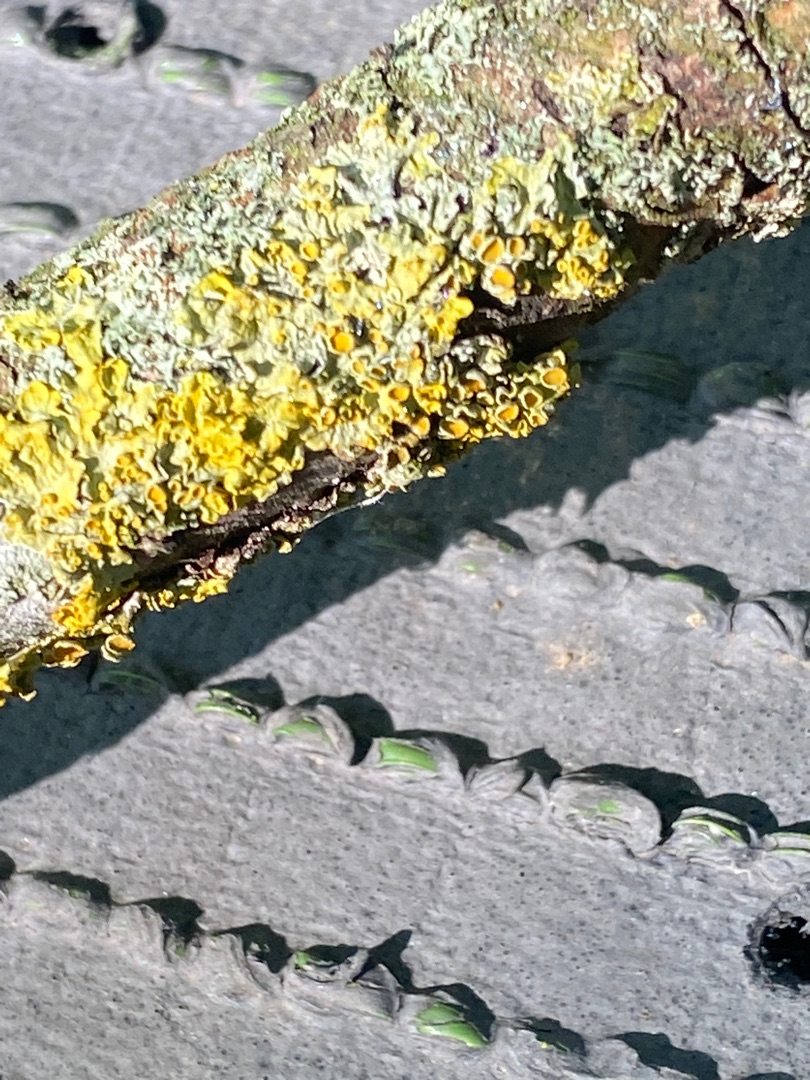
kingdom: Fungi
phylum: Ascomycota
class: Lecanoromycetes
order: Teloschistales
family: Teloschistaceae
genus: Xanthoria
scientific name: Xanthoria parietina
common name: Almindelig væggelav
